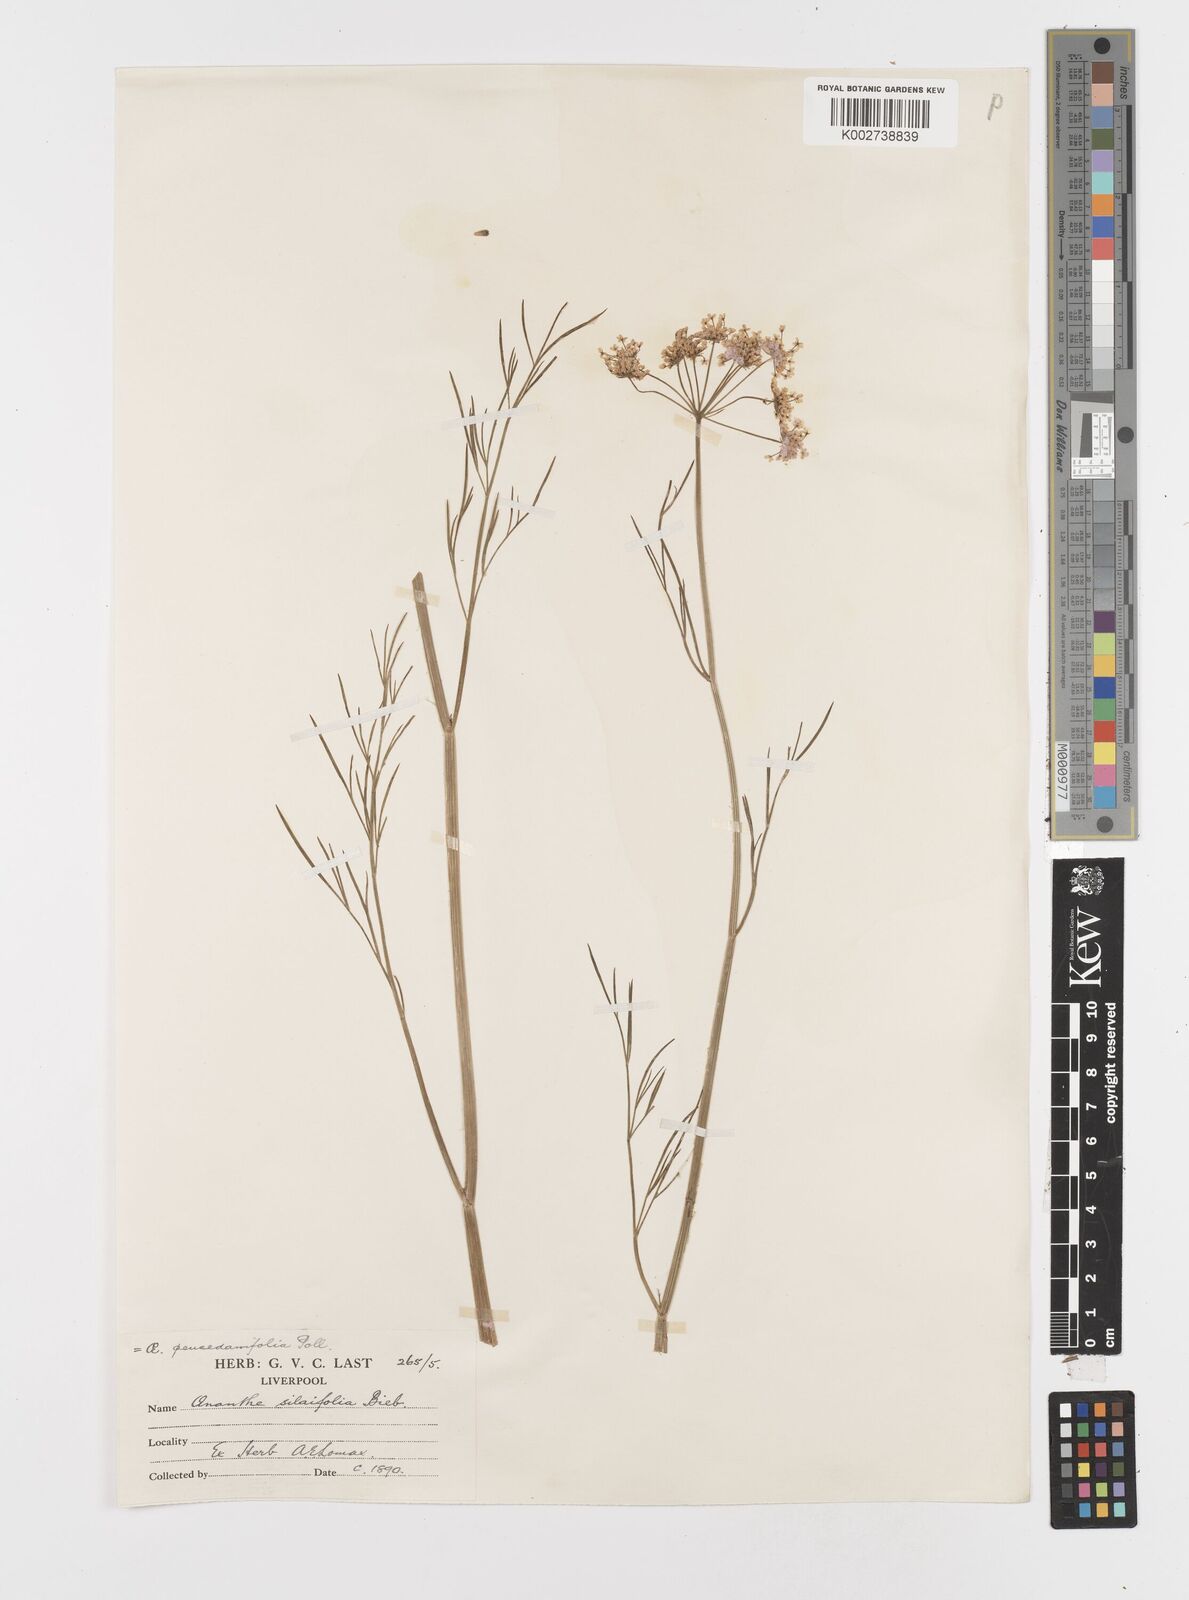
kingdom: Plantae
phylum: Tracheophyta
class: Magnoliopsida
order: Apiales
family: Apiaceae
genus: Oenanthe
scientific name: Oenanthe silaifolia
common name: Narrow-leaved water-dropwort
